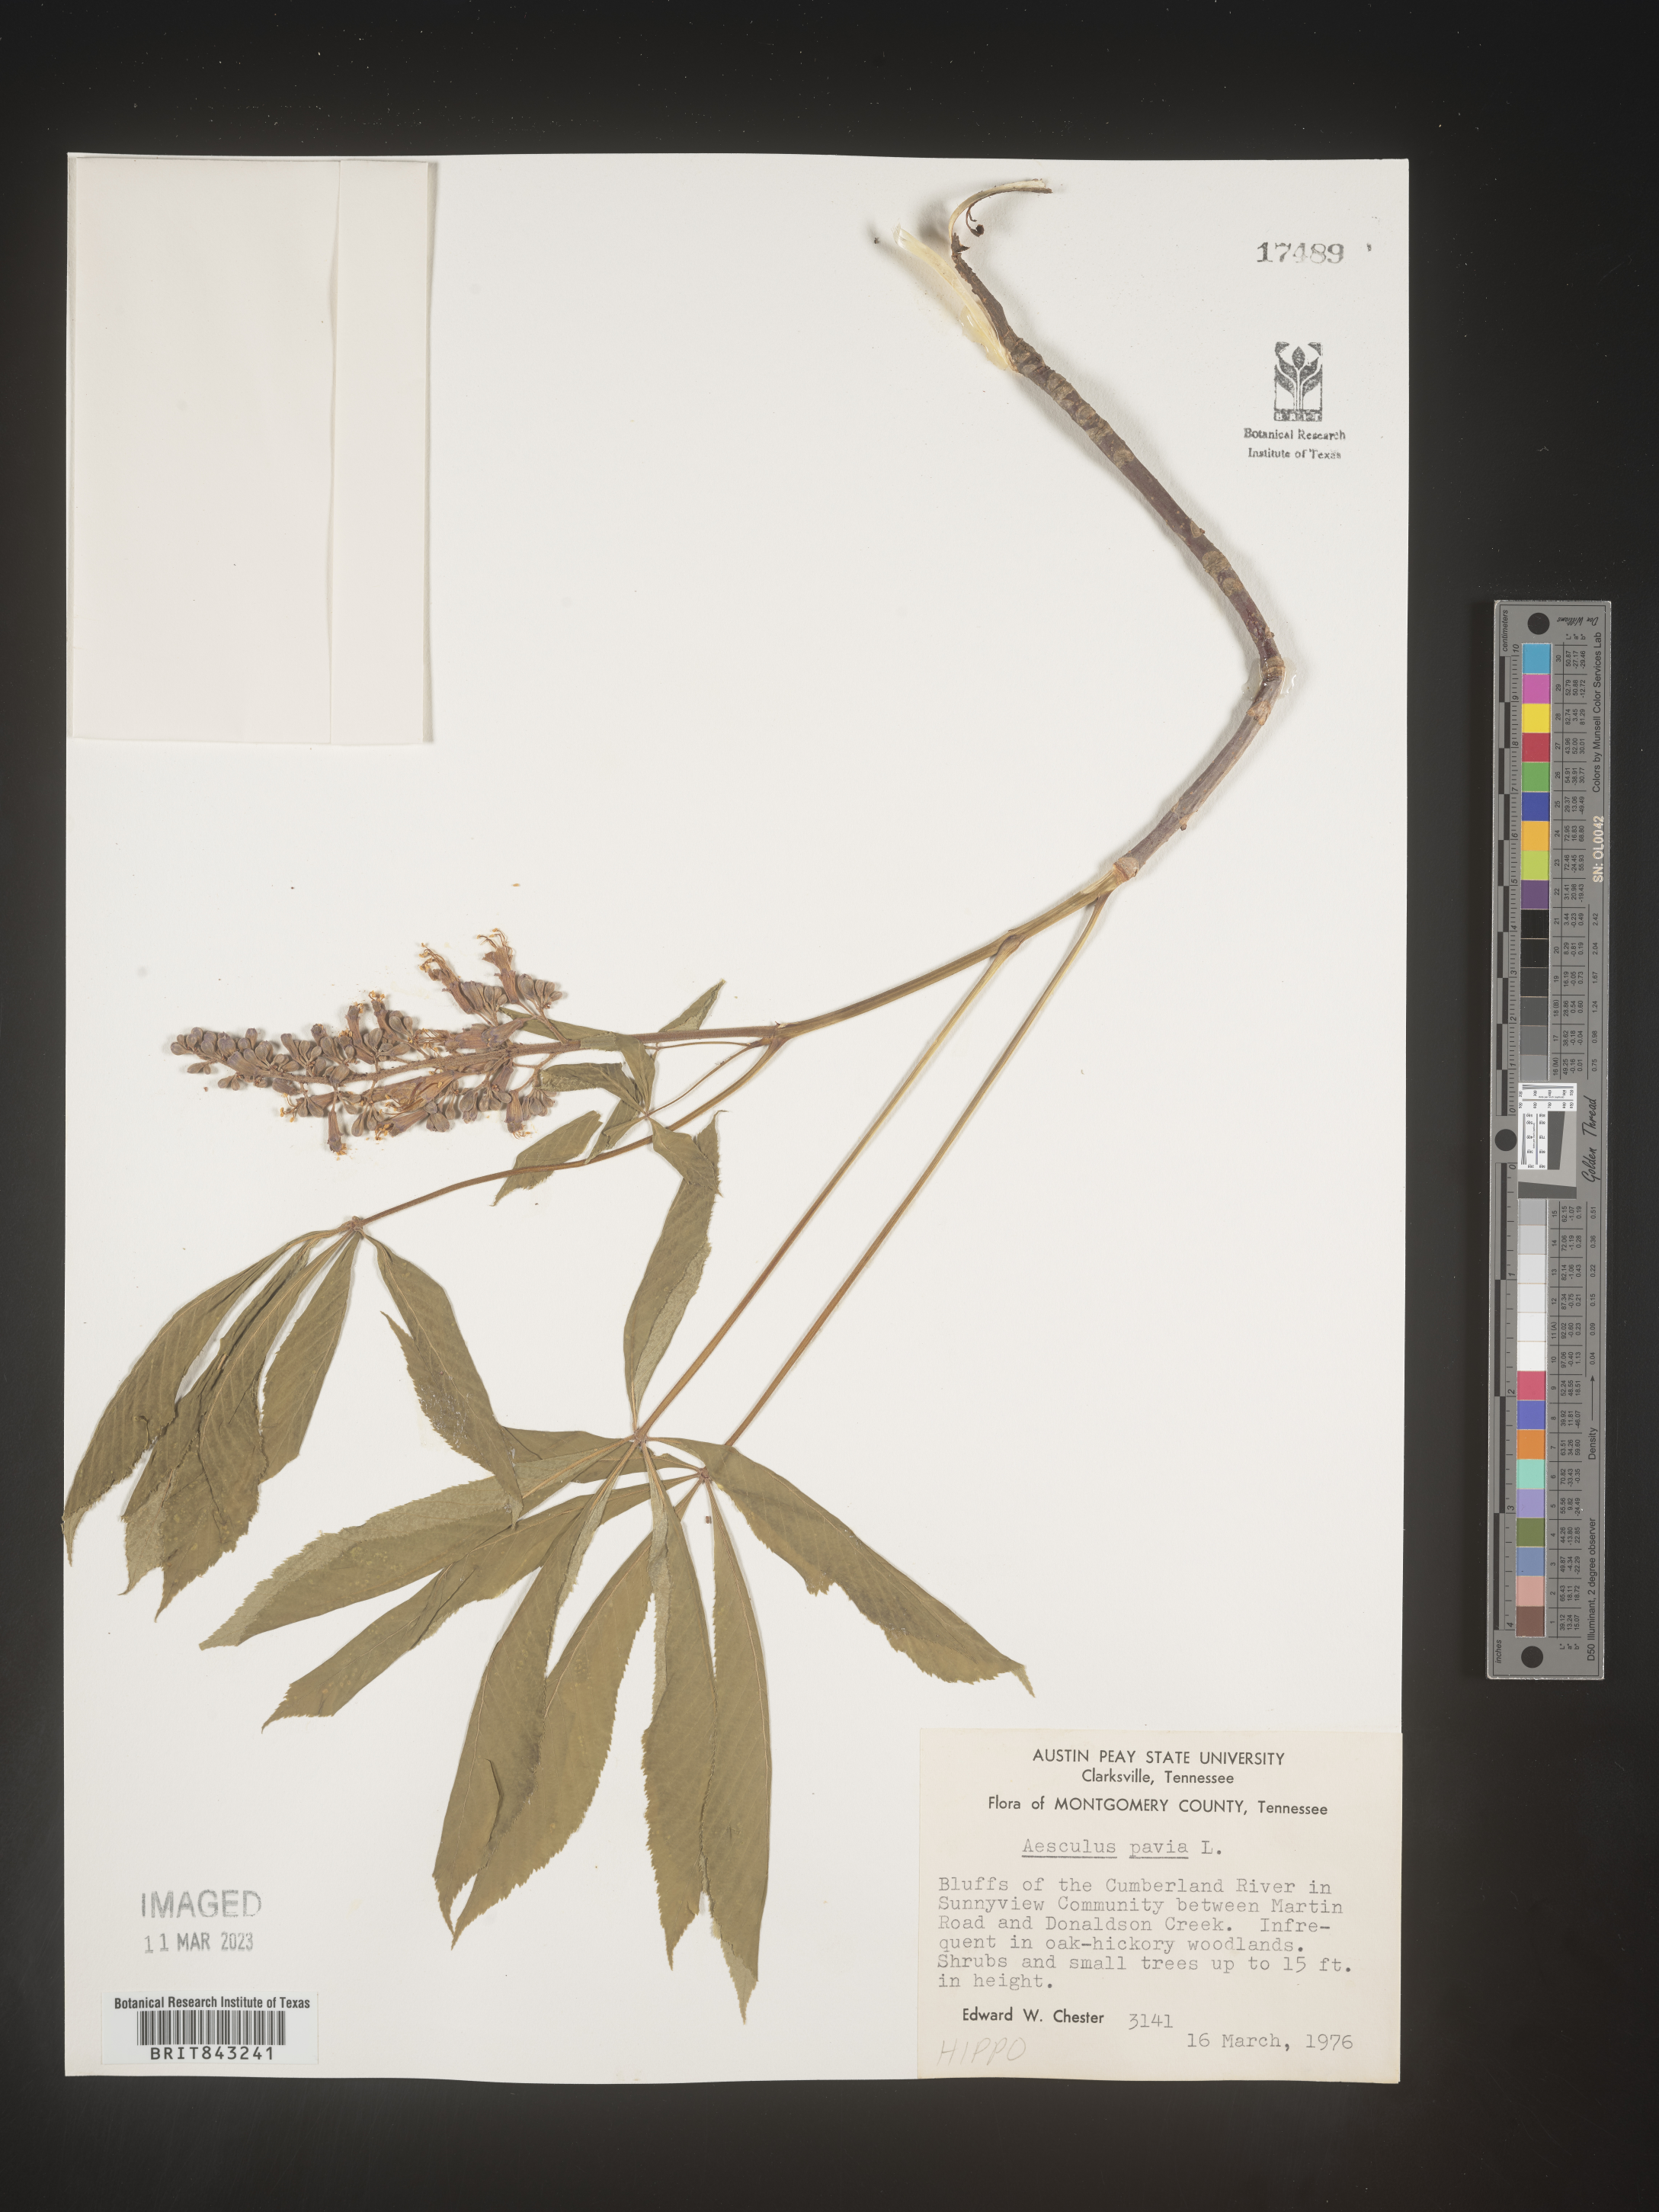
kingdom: Plantae
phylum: Tracheophyta
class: Magnoliopsida
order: Sapindales
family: Sapindaceae
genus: Aesculus
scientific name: Aesculus pavia
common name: Red buckeye
